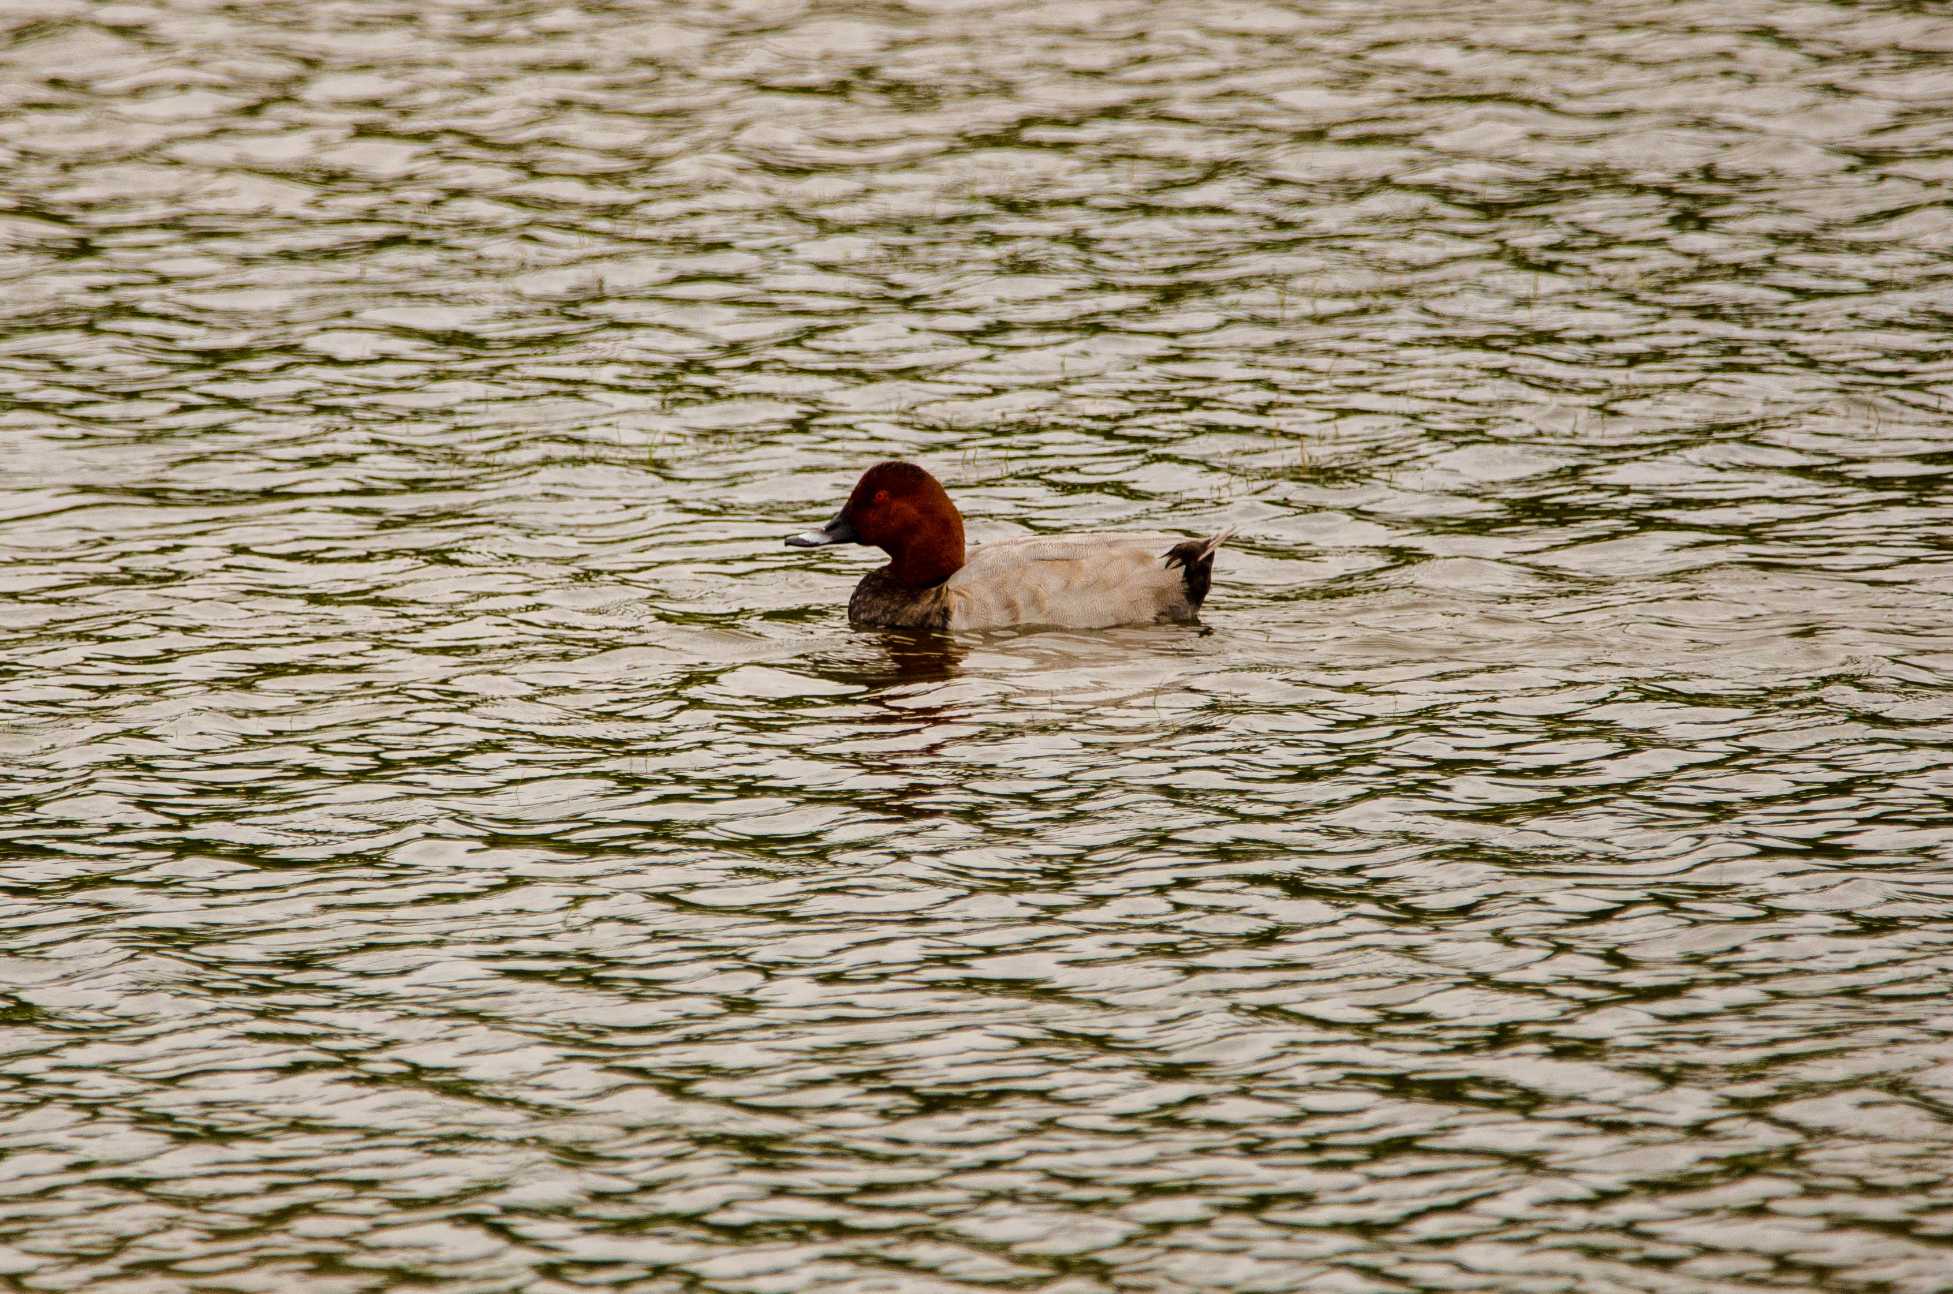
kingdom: Animalia
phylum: Chordata
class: Aves
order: Anseriformes
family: Anatidae
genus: Aythya
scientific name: Aythya ferina
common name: Taffeland
